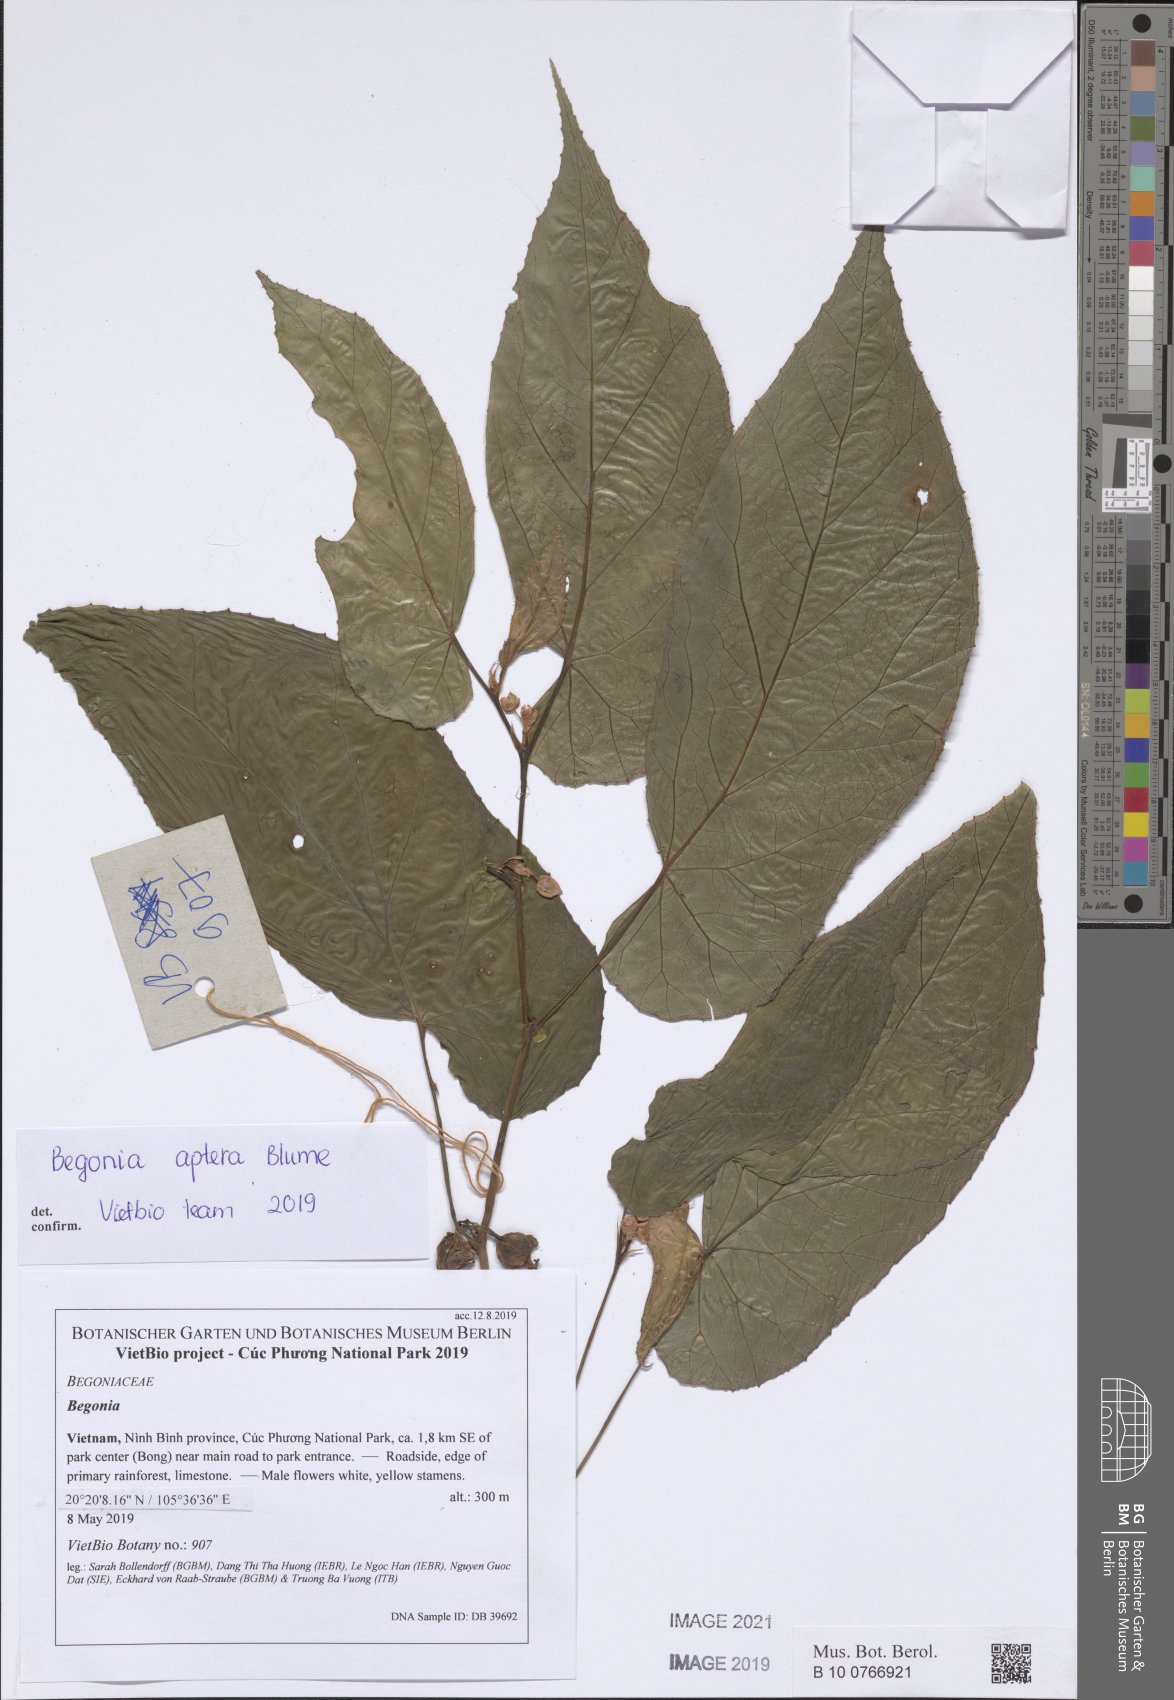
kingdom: Plantae
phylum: Tracheophyta
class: Magnoliopsida
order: Cucurbitales
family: Begoniaceae
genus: Begonia
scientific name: Begonia aptera
